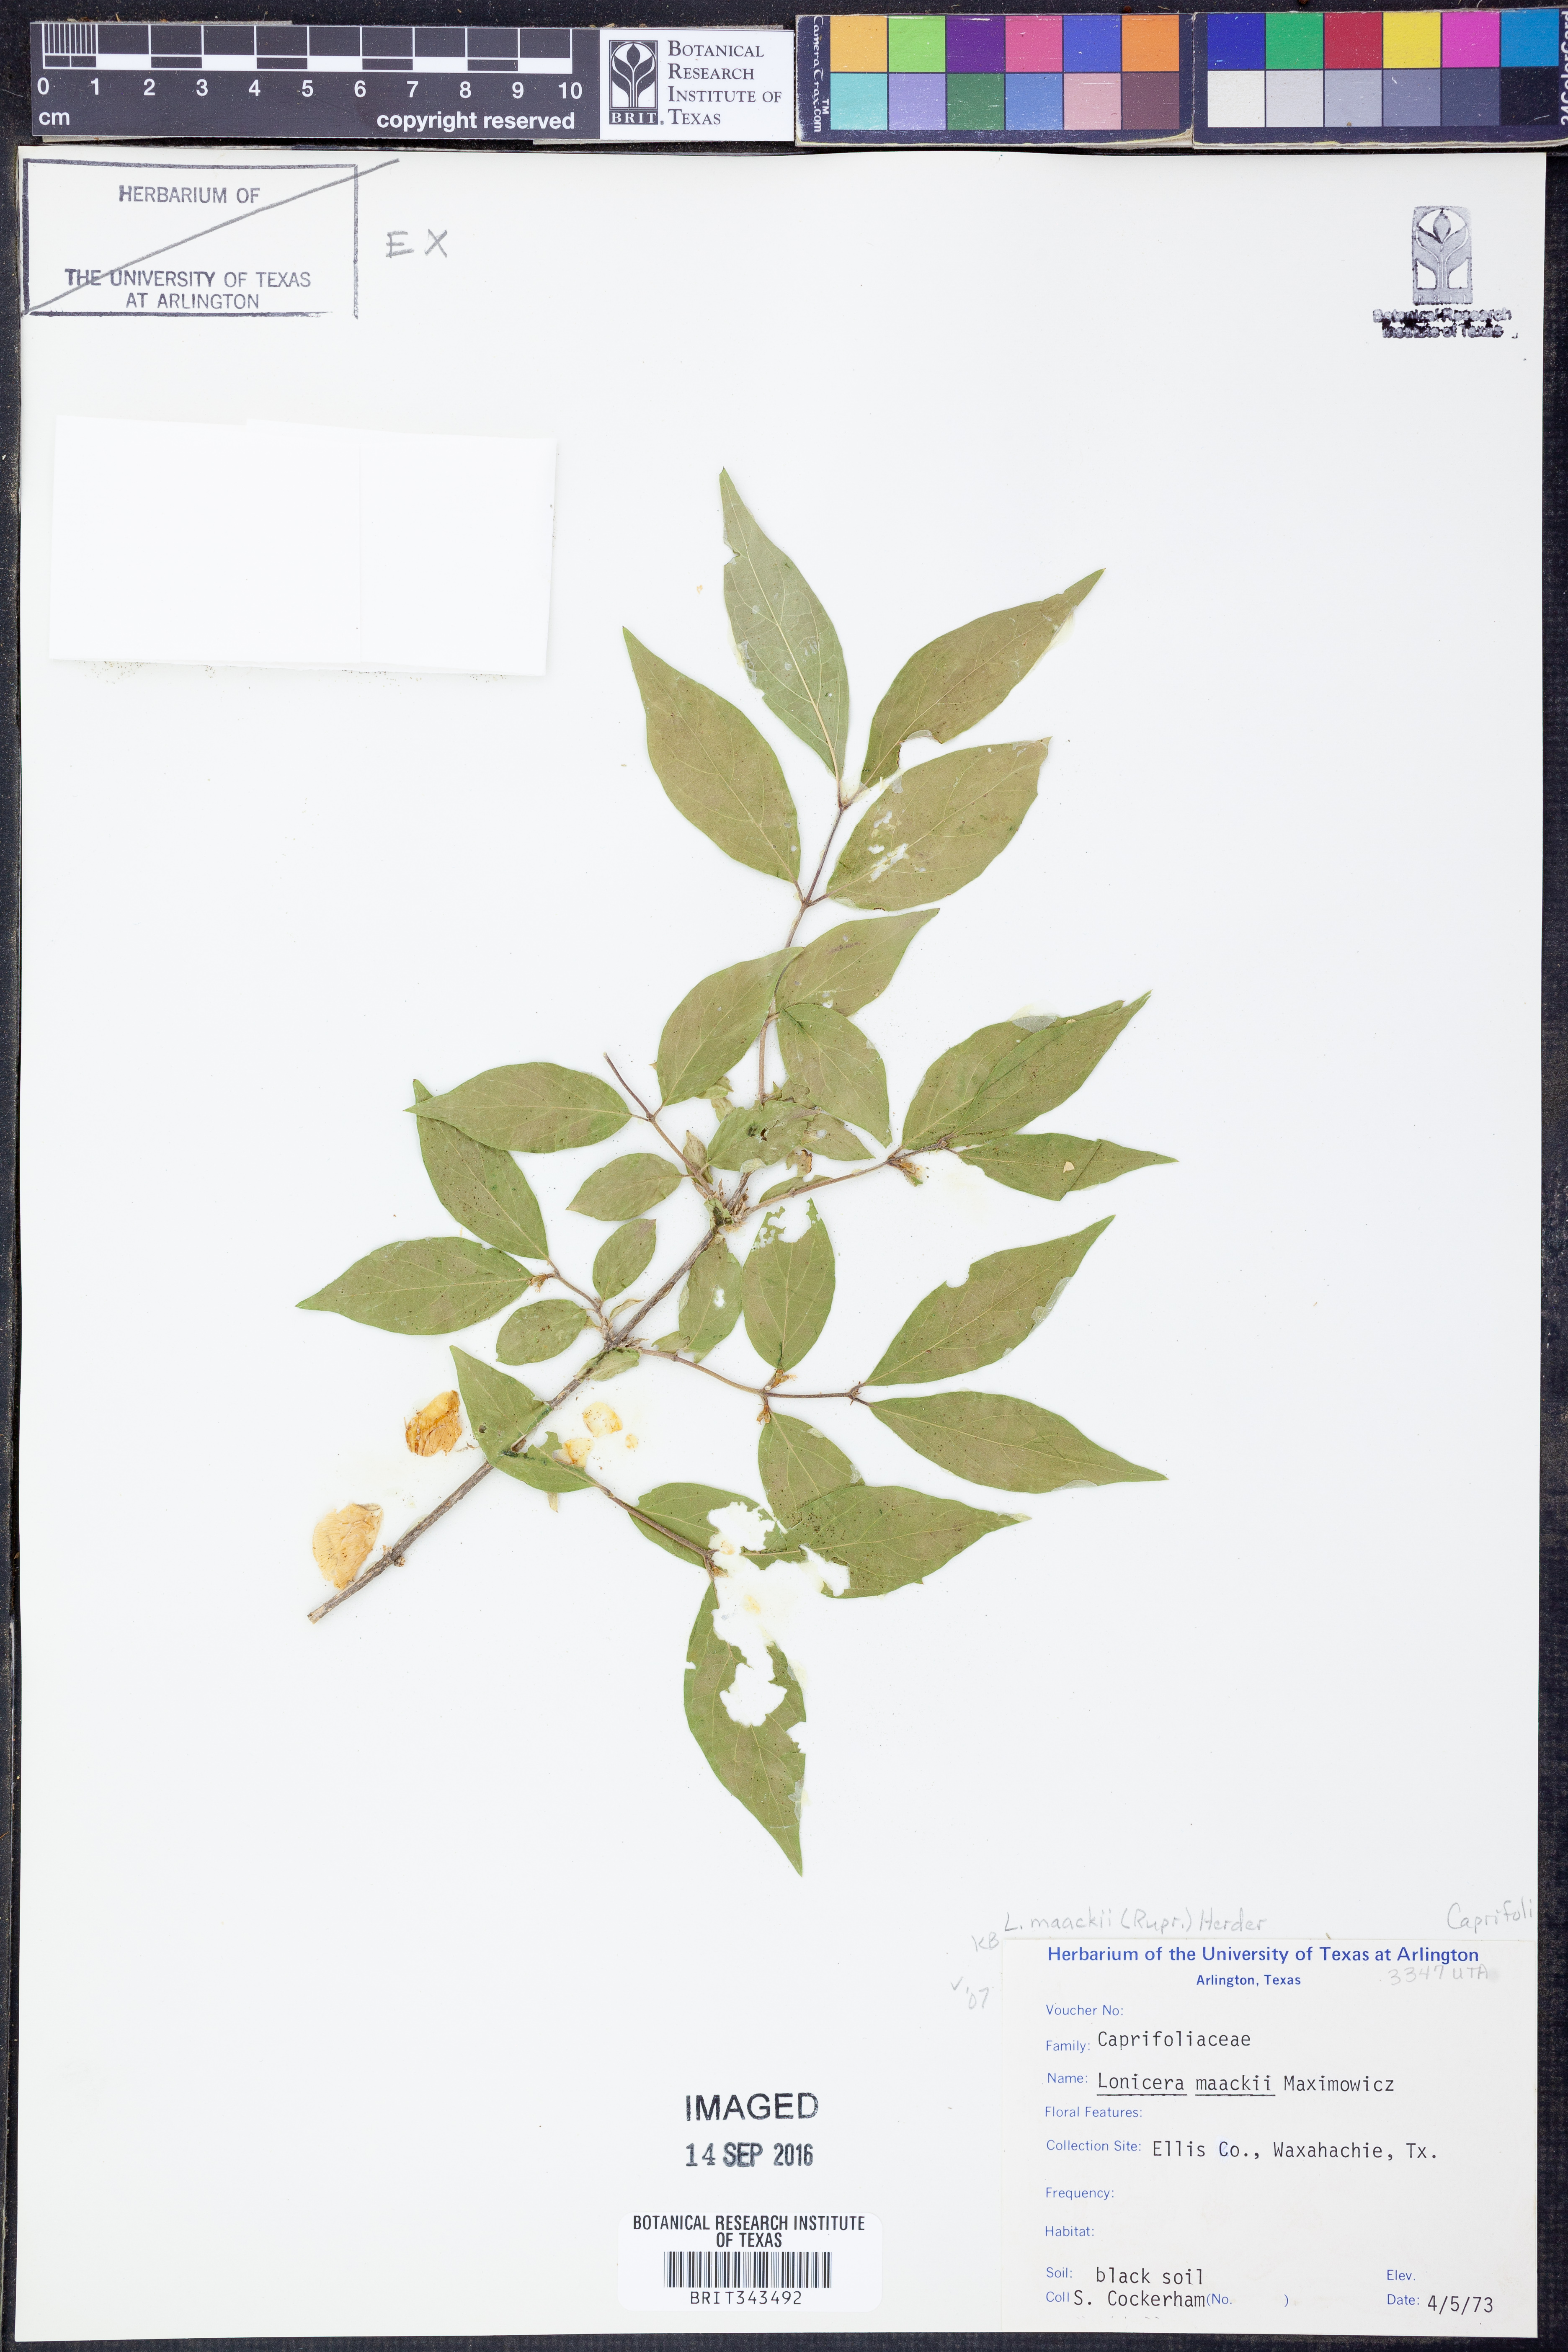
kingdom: Plantae
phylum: Tracheophyta
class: Magnoliopsida
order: Dipsacales
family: Caprifoliaceae
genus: Lonicera
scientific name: Lonicera maackii
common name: Amur honeysuckle
